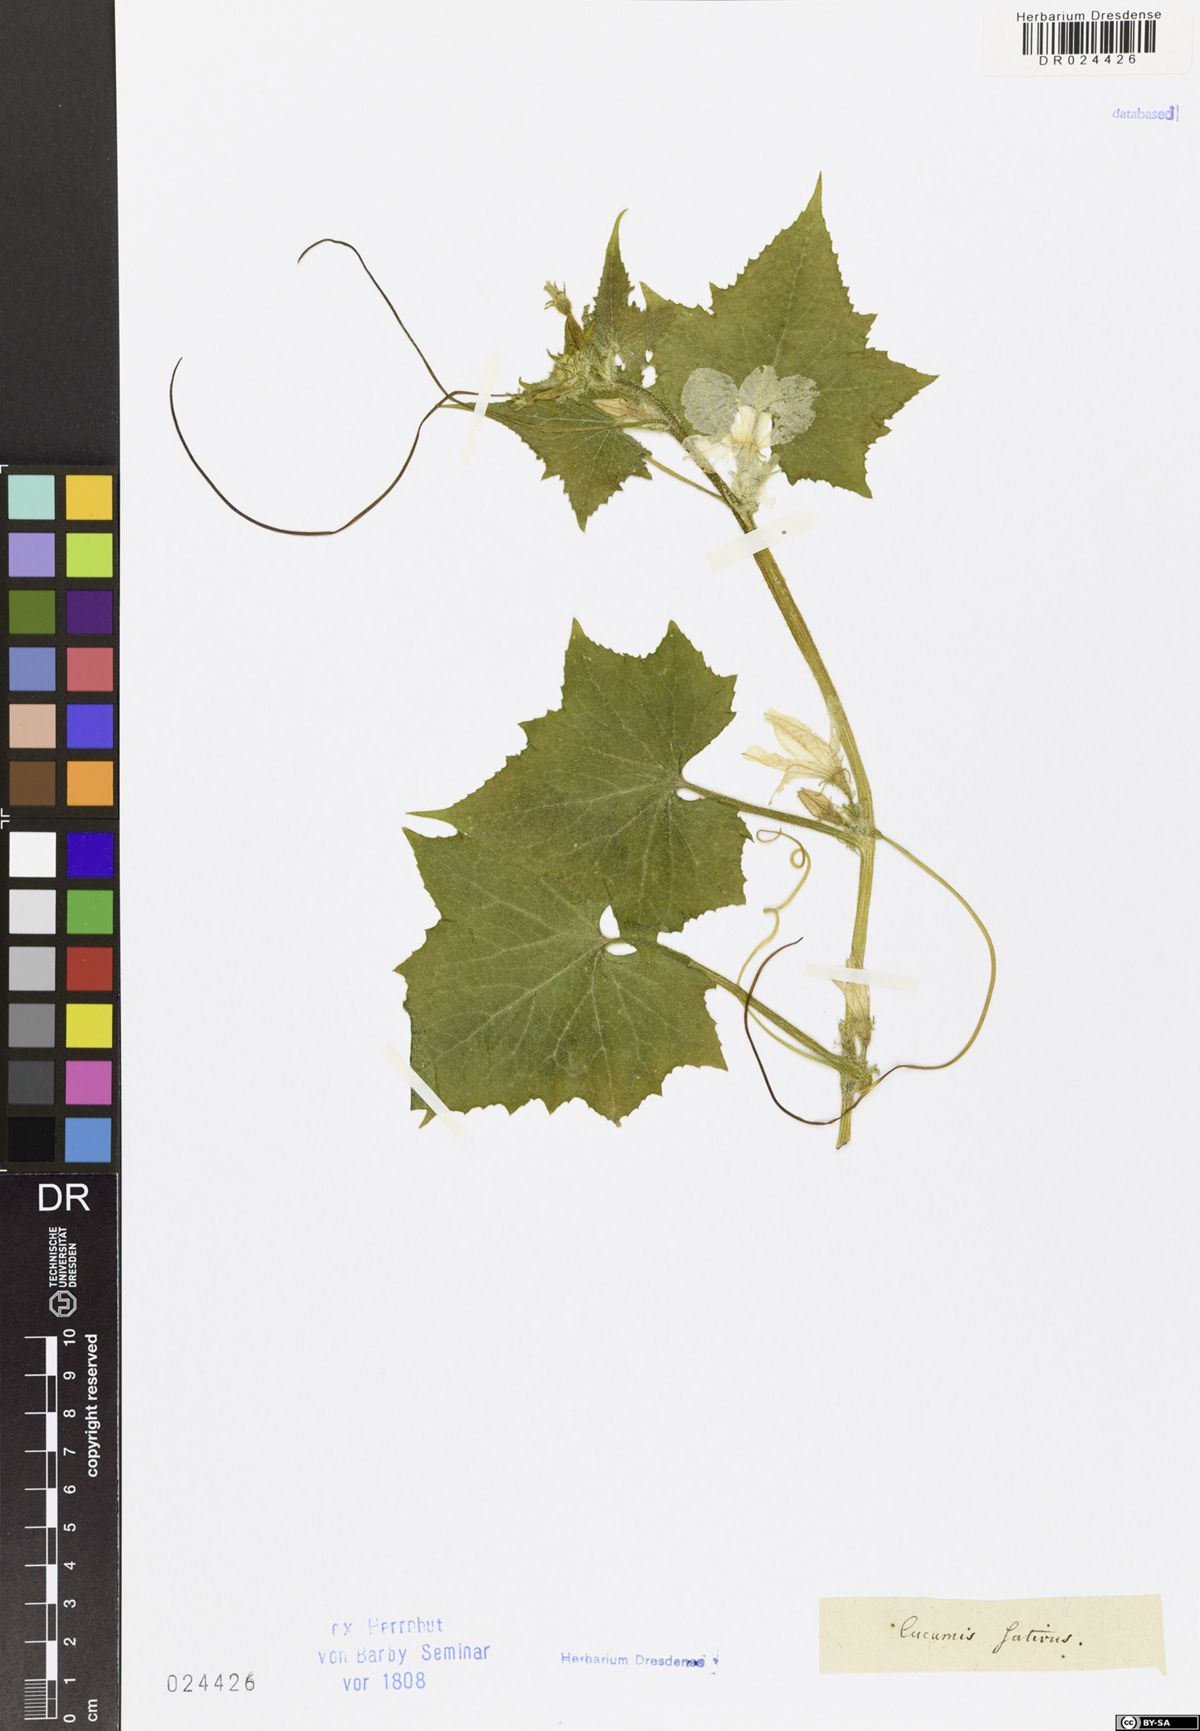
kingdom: Plantae
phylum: Tracheophyta
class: Magnoliopsida
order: Cucurbitales
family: Cucurbitaceae
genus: Cucumis
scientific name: Cucumis sativus
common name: Cucumber
